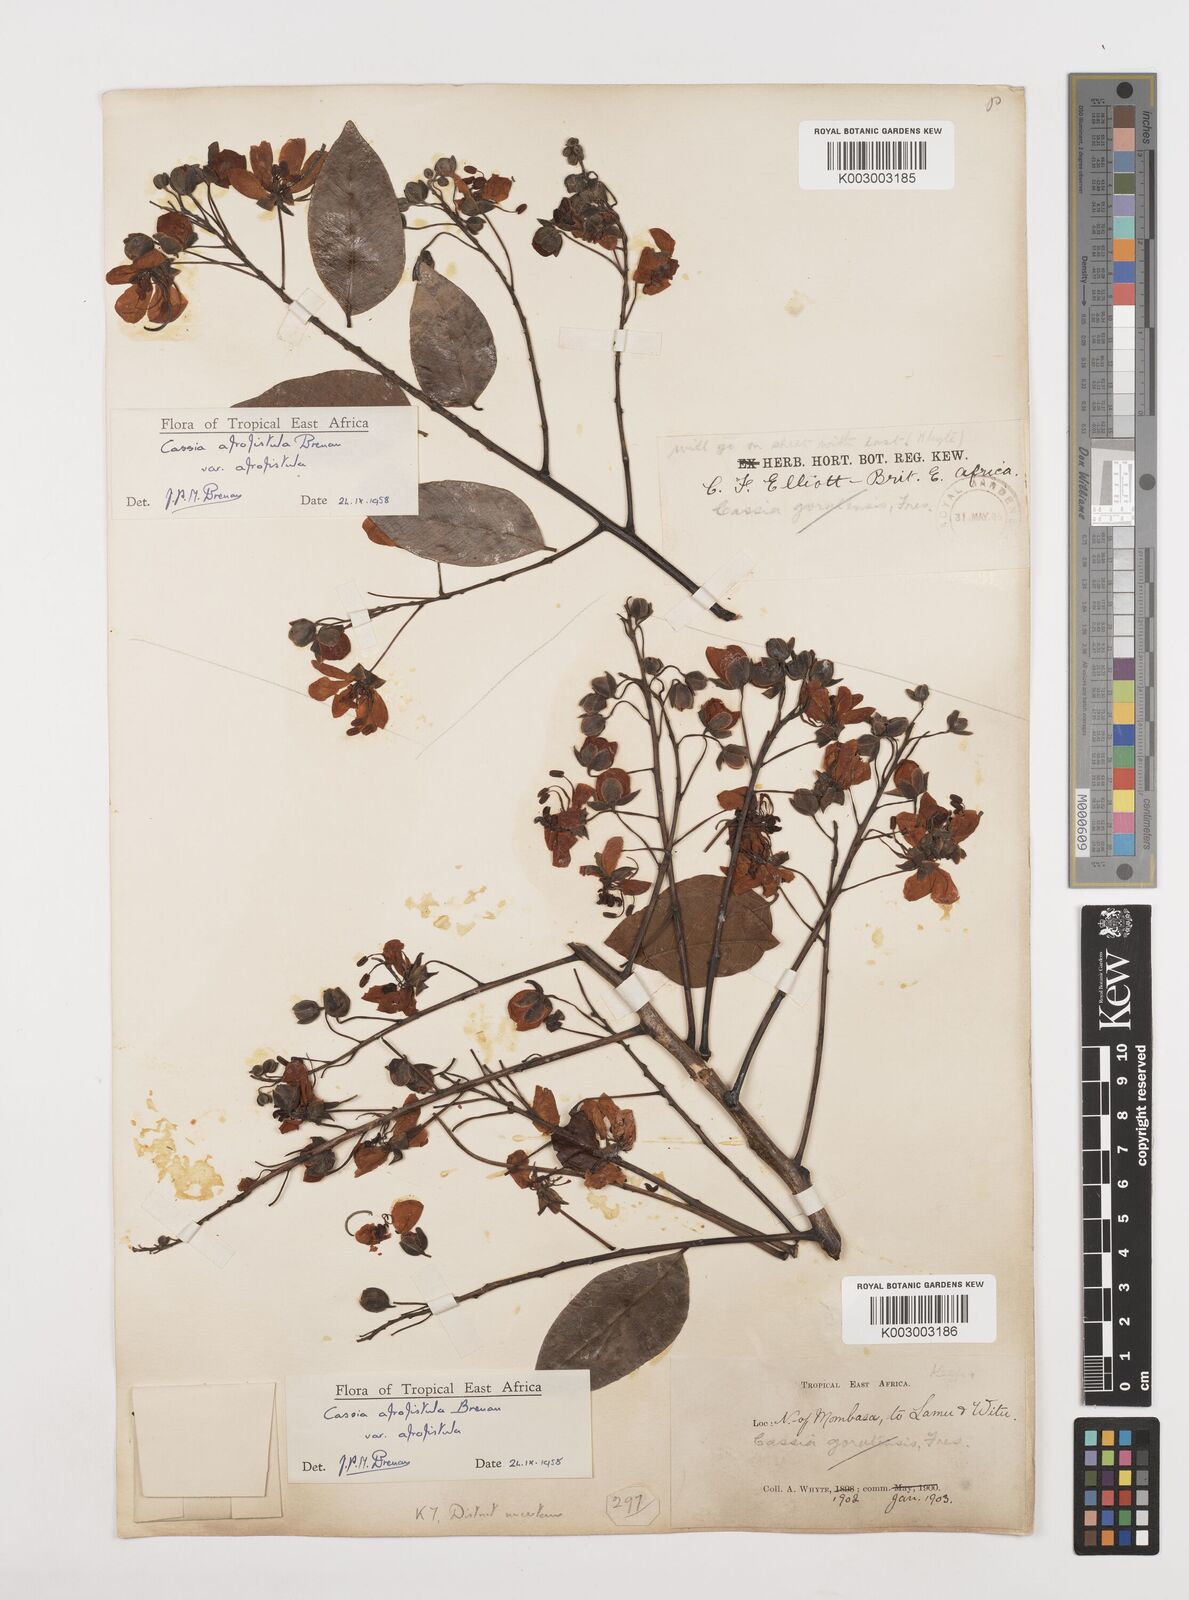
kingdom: Plantae
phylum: Tracheophyta
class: Magnoliopsida
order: Fabales
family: Fabaceae
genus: Cassia
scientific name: Cassia afrofistula
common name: Kenyan shower
